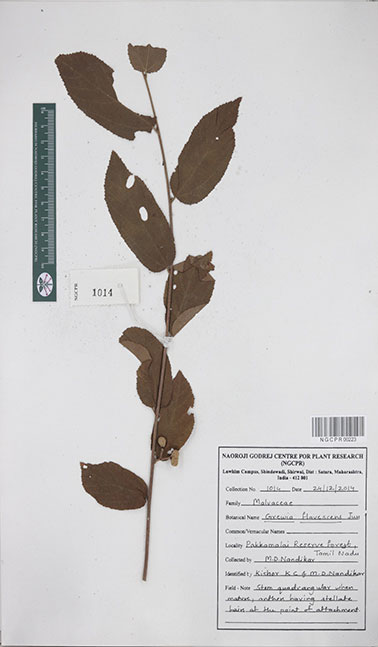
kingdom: Plantae
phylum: Tracheophyta
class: Magnoliopsida
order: Malvales
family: Malvaceae
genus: Grewia
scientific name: Grewia flavescens
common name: Sandpaper raisin
